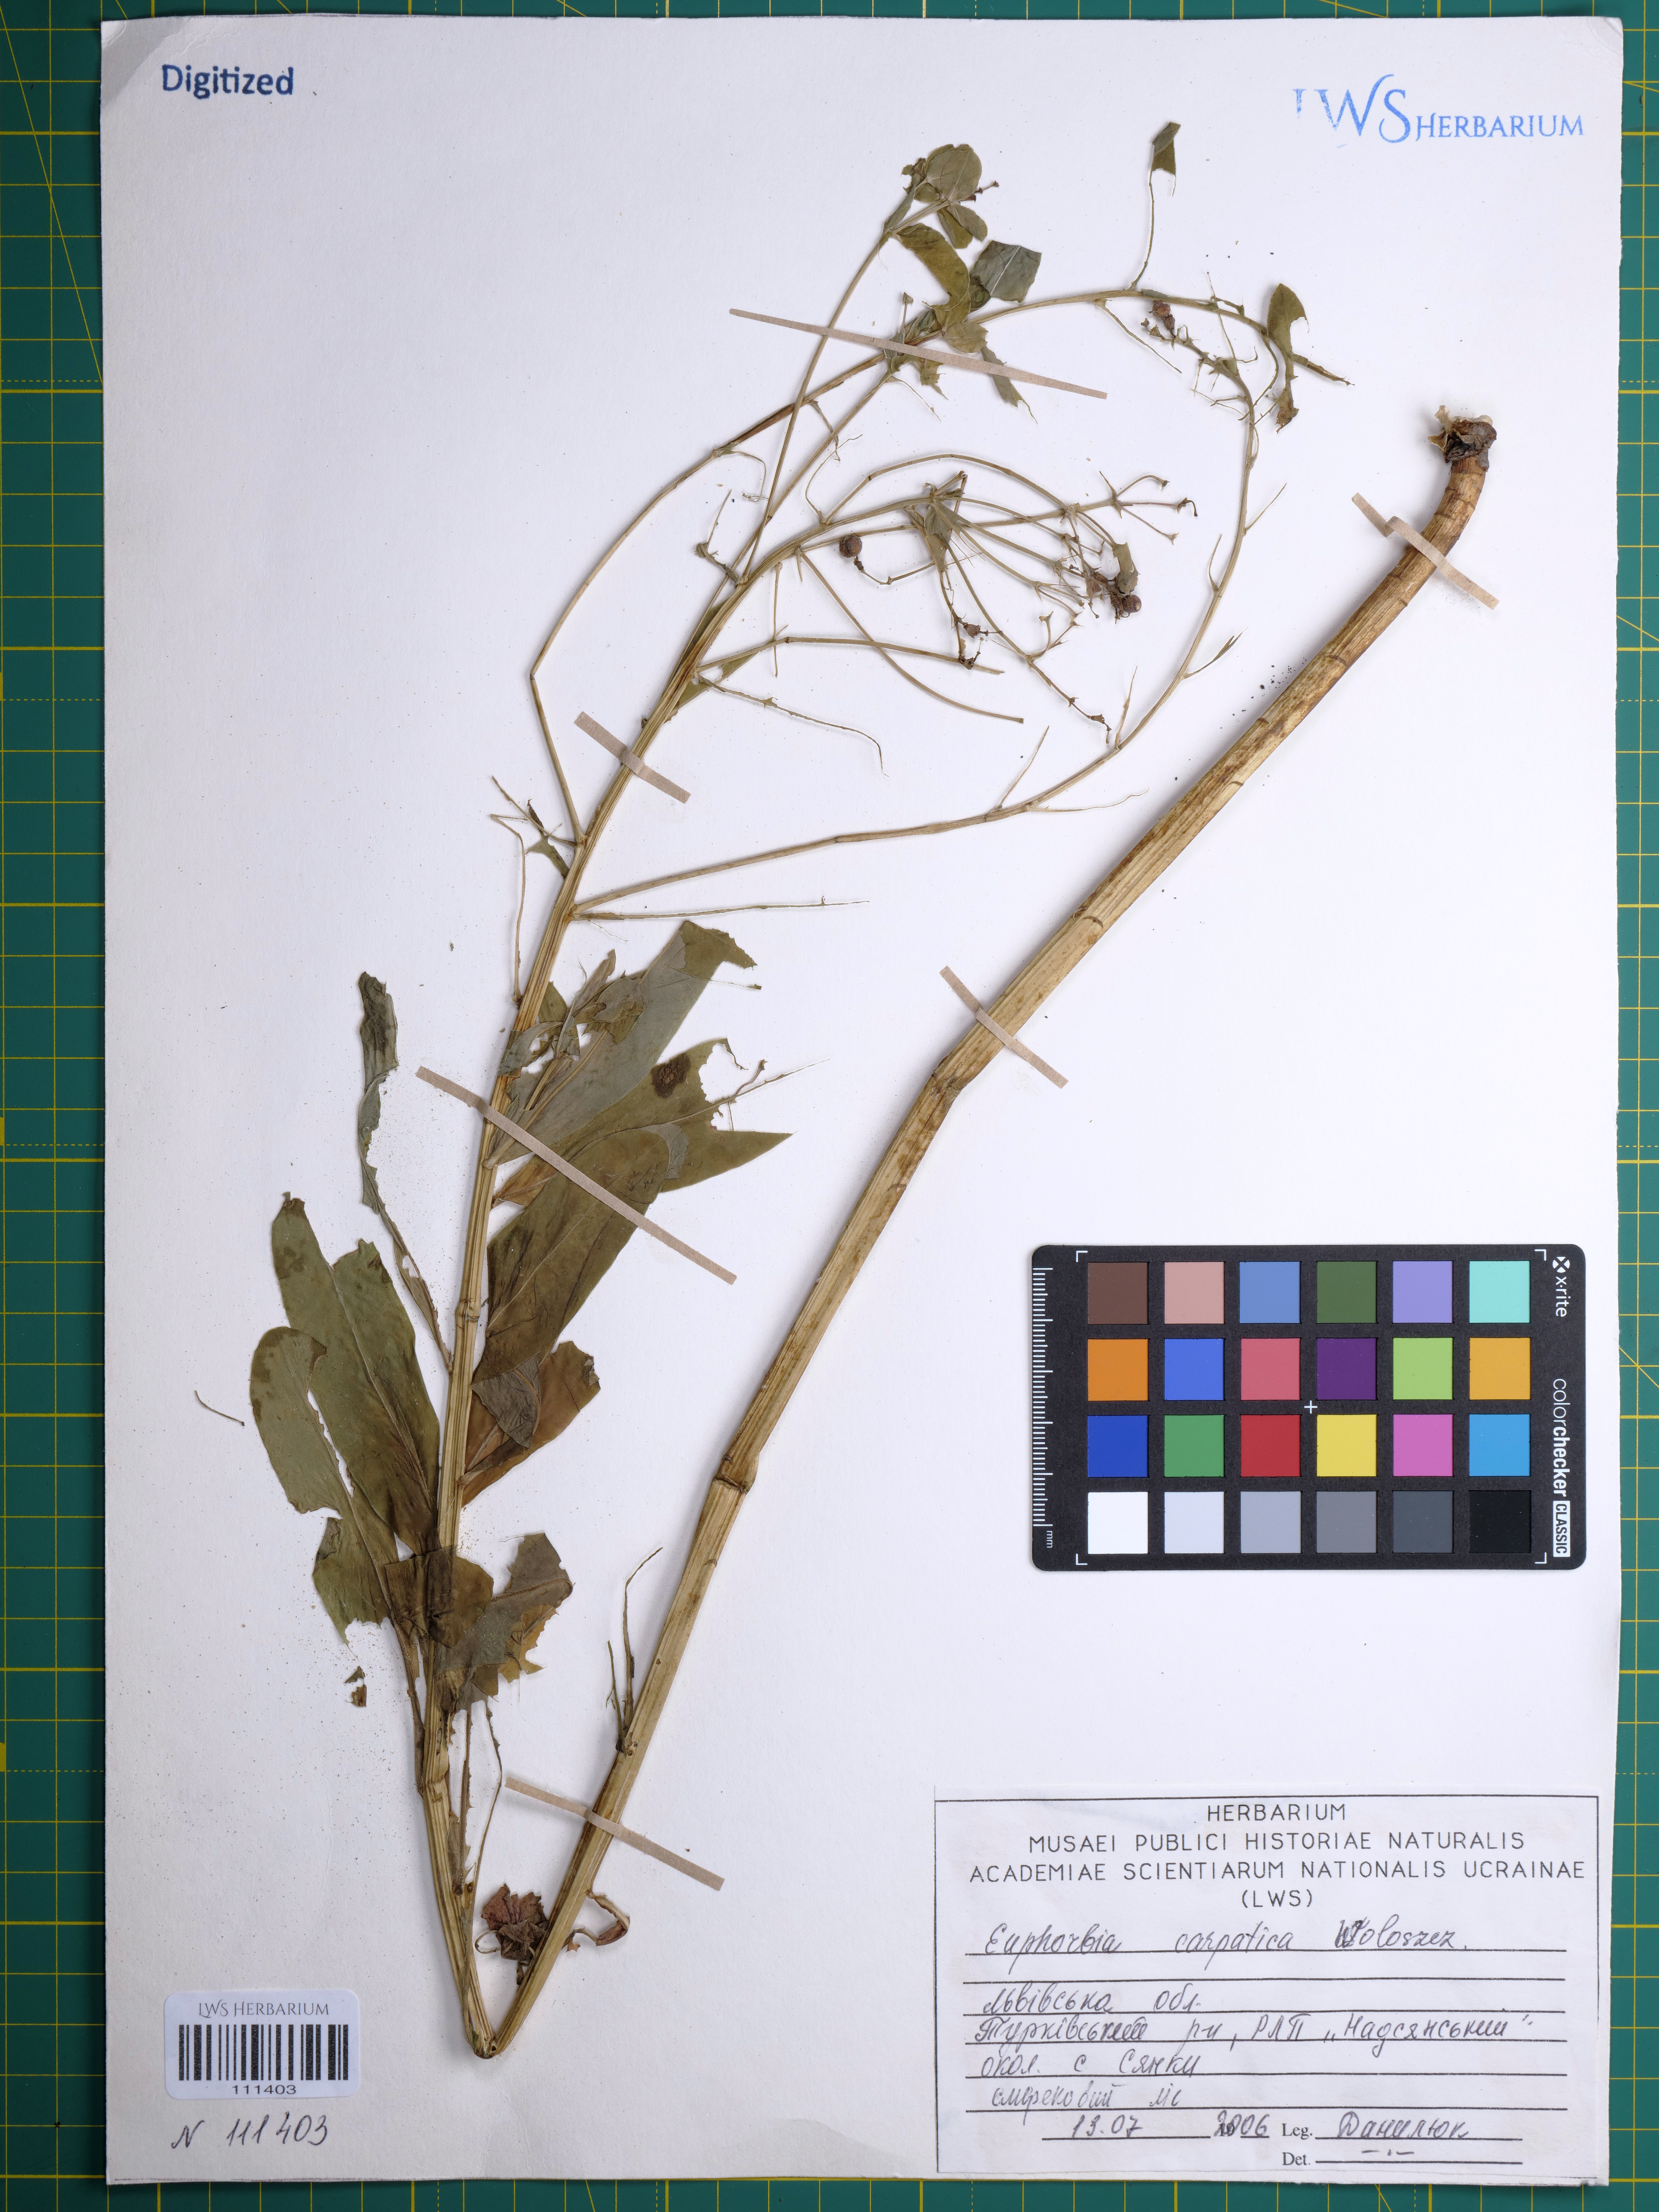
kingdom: Plantae
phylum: Tracheophyta
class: Magnoliopsida
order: Malpighiales
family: Euphorbiaceae
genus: Euphorbia
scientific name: Euphorbia carpatica
